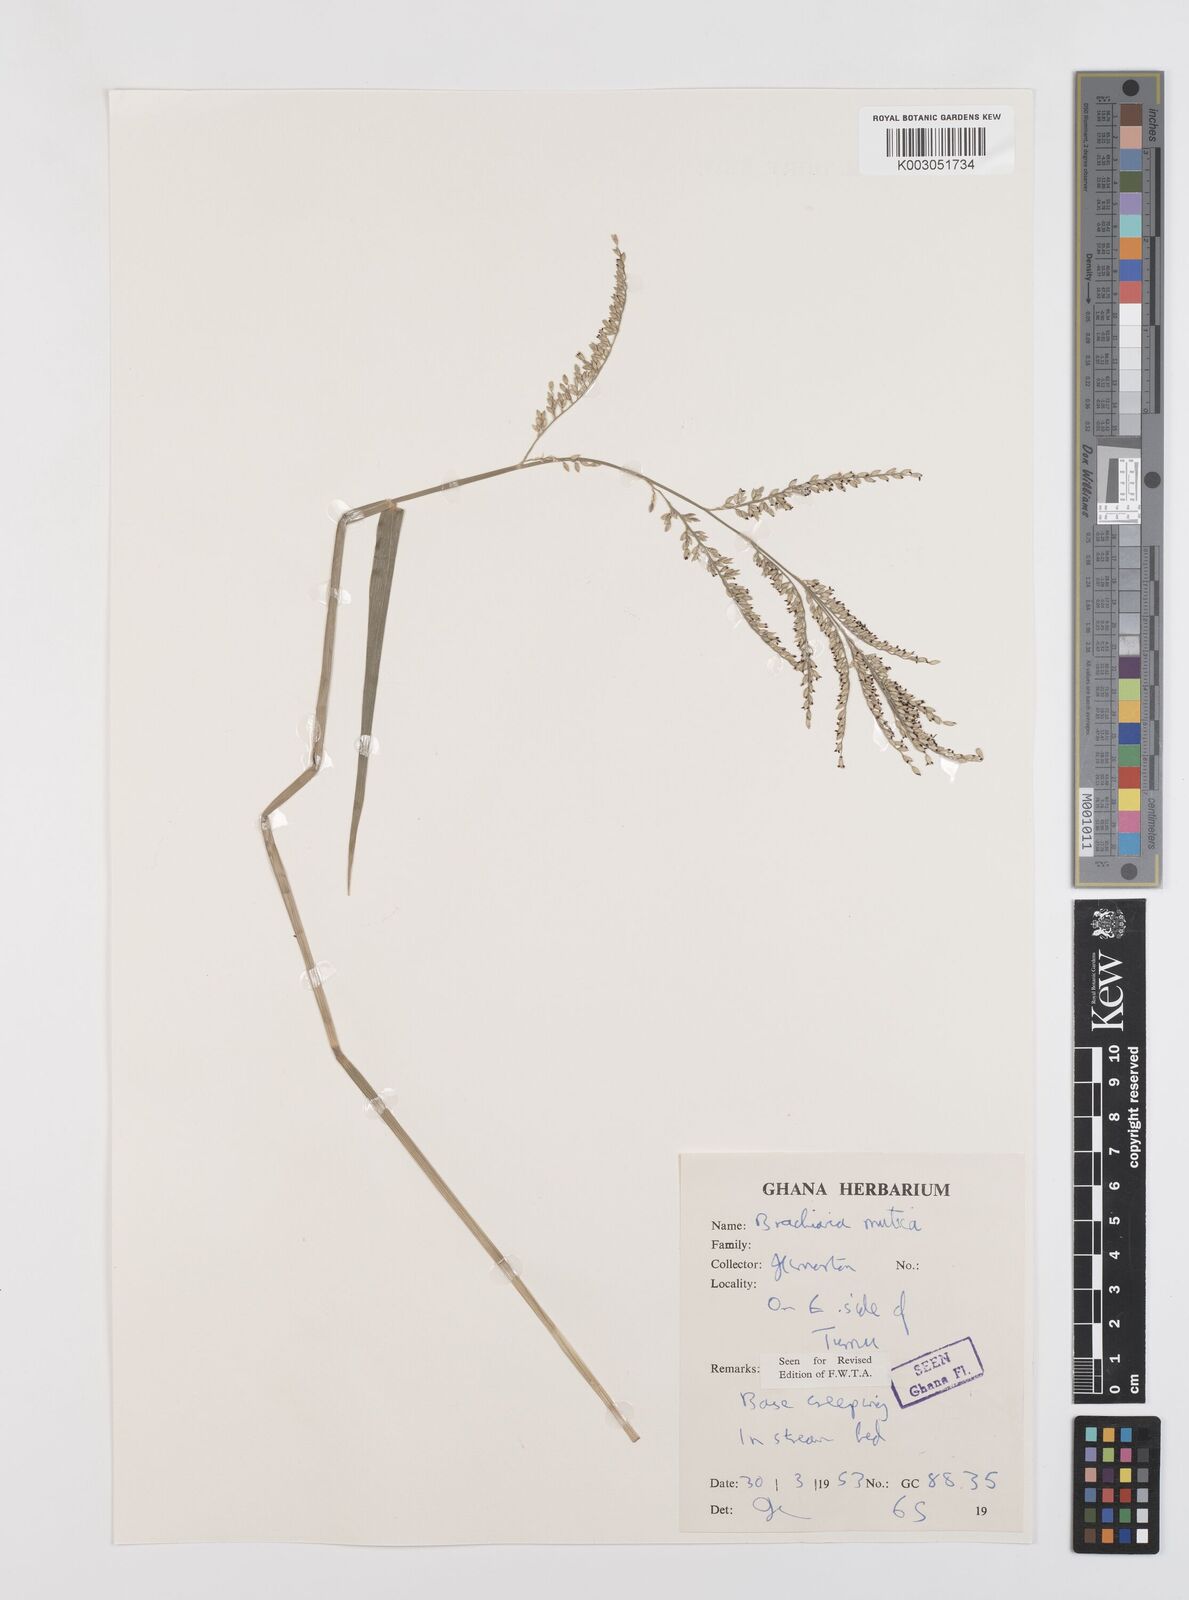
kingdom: Plantae
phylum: Tracheophyta
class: Liliopsida
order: Poales
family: Poaceae
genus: Urochloa
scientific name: Urochloa mutica
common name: Para grass
